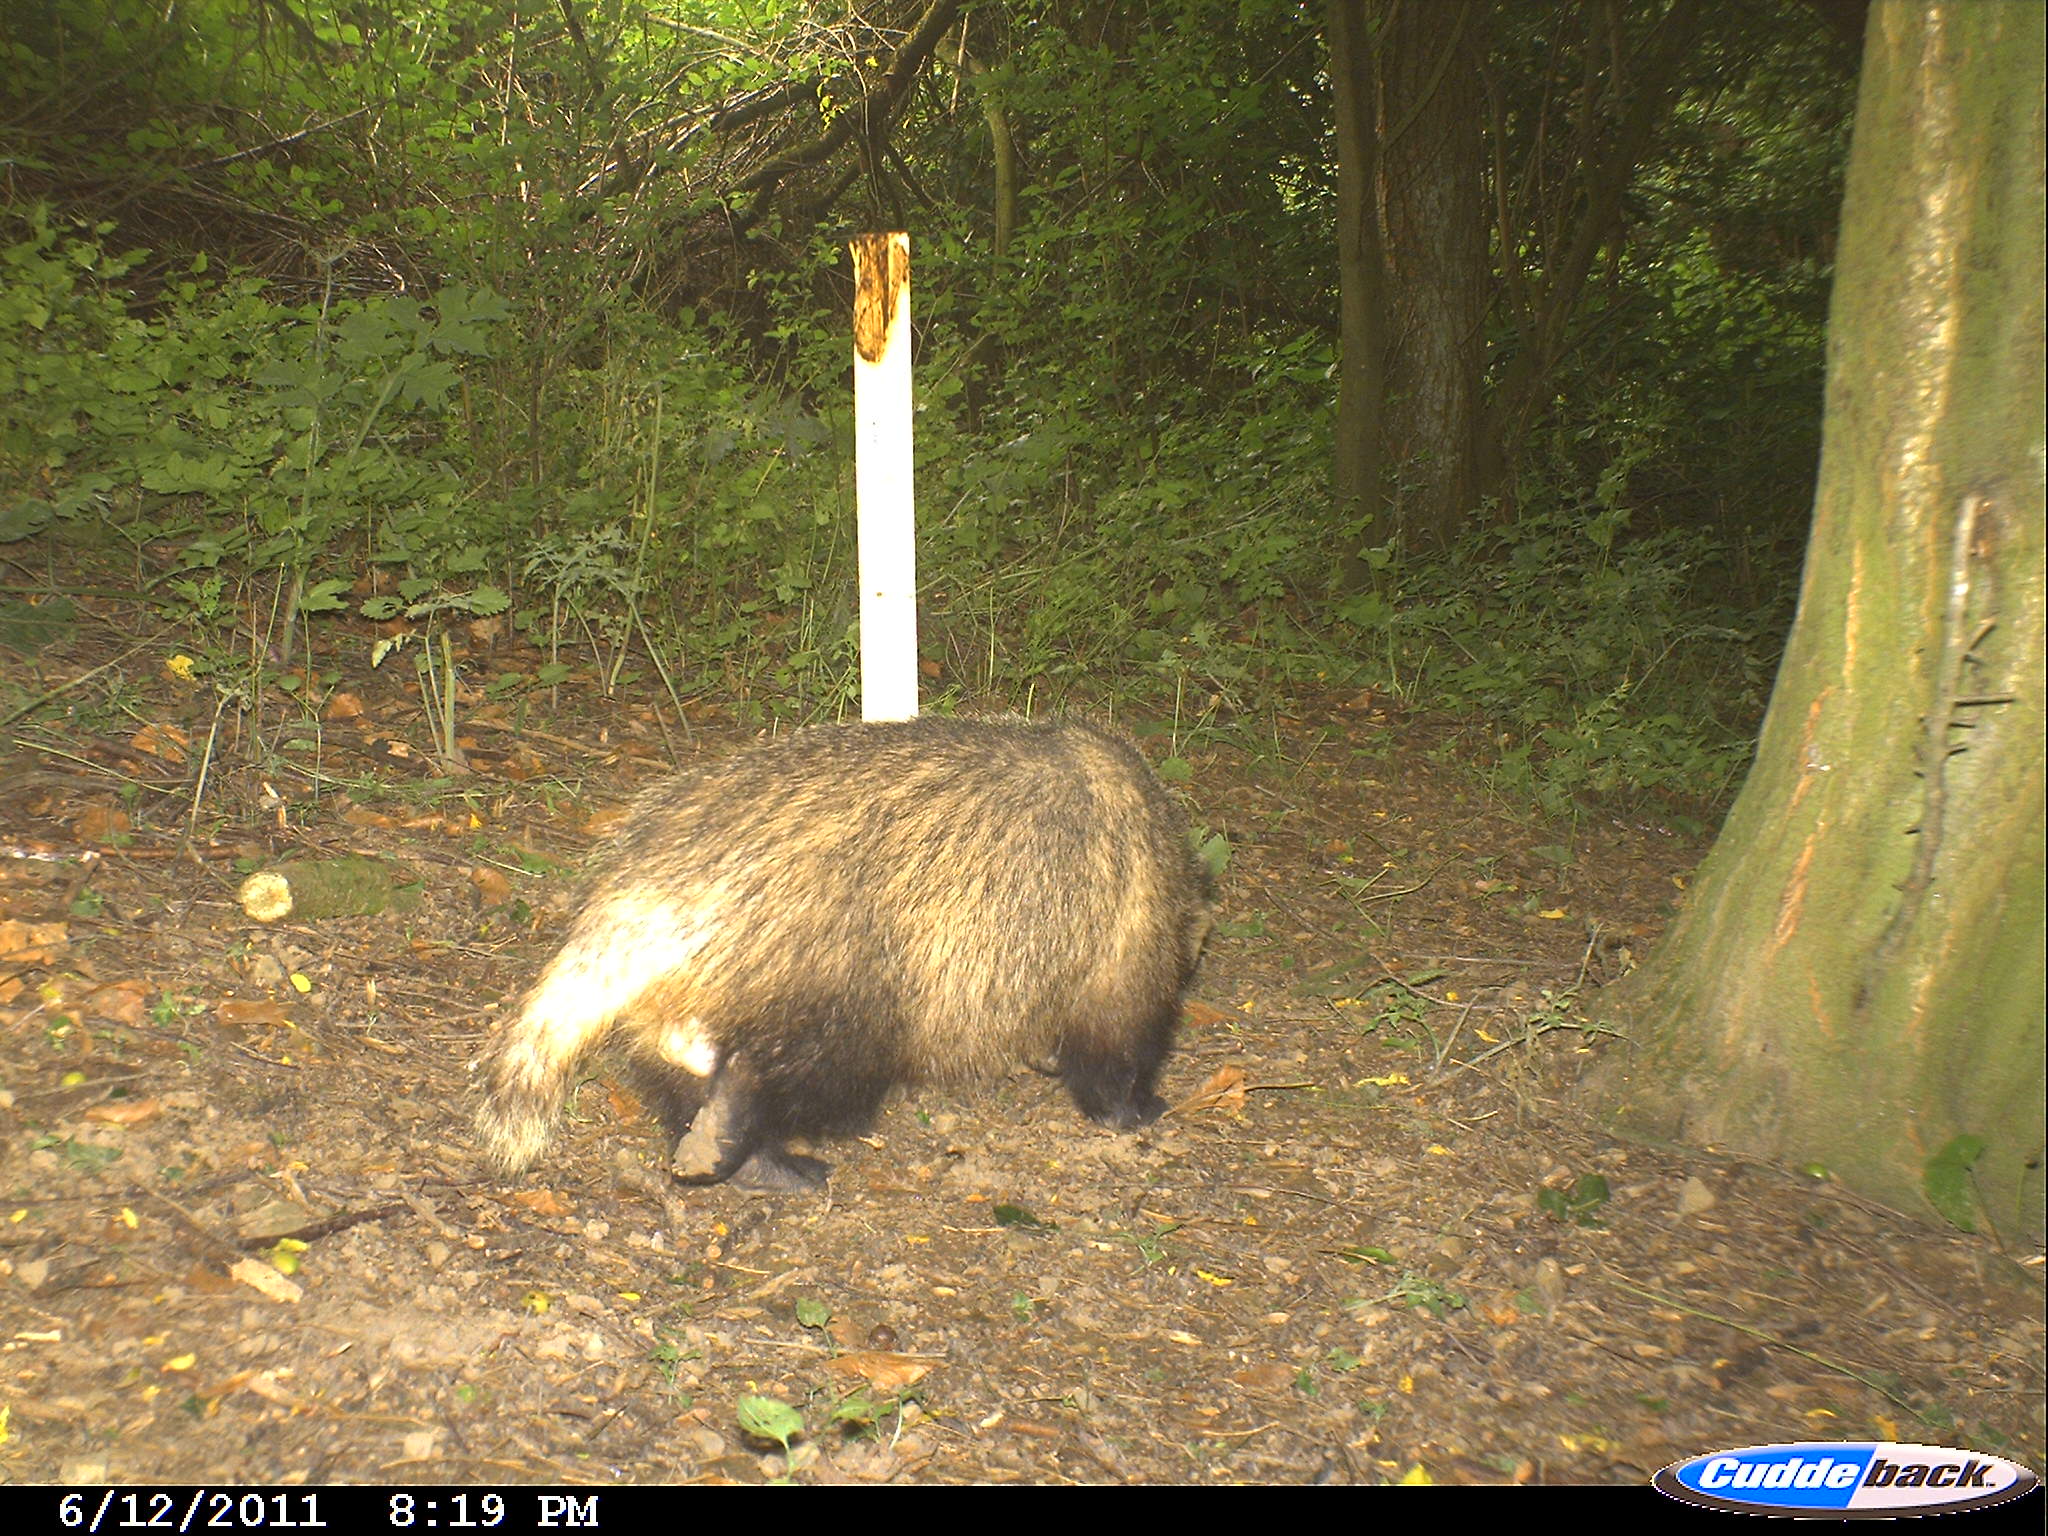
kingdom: Animalia
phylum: Chordata
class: Mammalia
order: Carnivora
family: Mustelidae
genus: Meles
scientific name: Meles meles
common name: Eurasian badger
